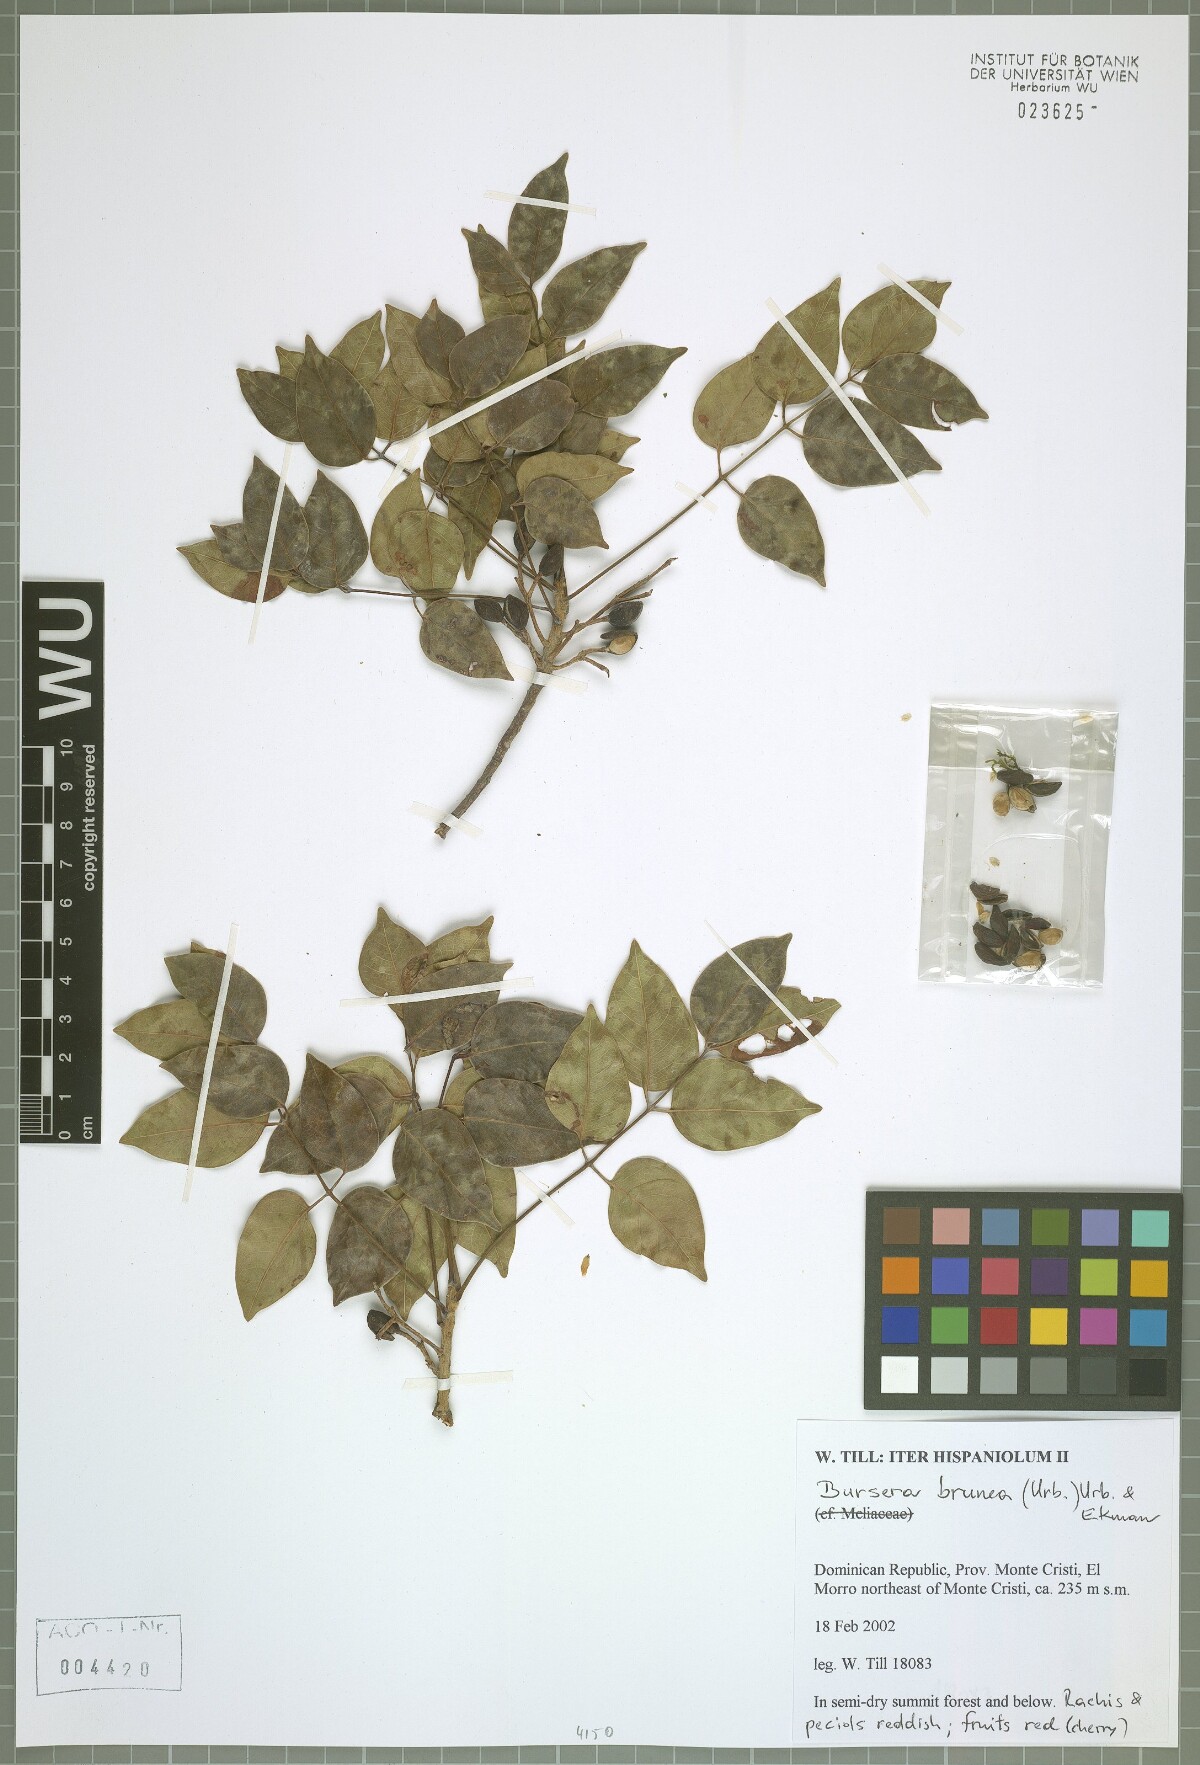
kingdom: Plantae
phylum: Tracheophyta
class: Magnoliopsida
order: Sapindales
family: Burseraceae
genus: Bursera
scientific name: Bursera simaruba
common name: Turpentine tree
